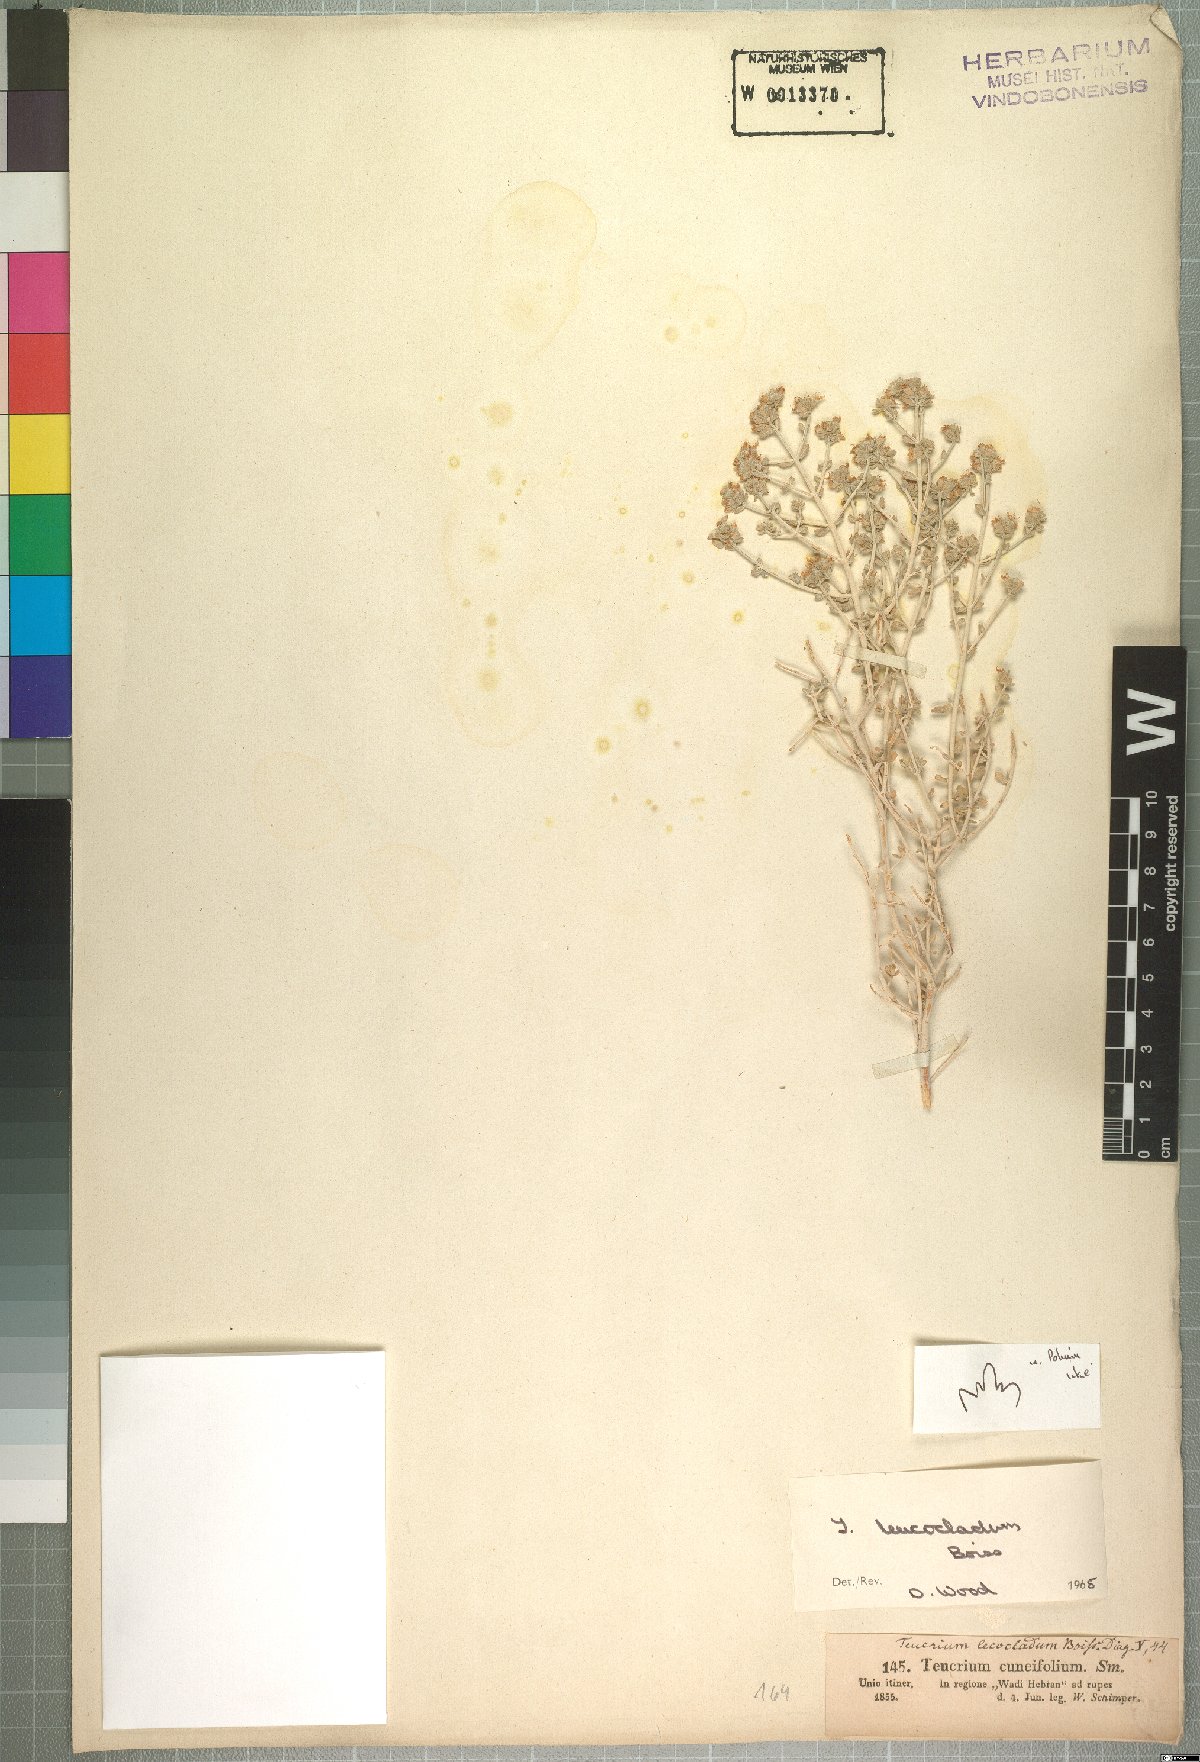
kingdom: Plantae
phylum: Tracheophyta
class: Magnoliopsida
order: Lamiales
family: Lamiaceae
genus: Teucrium
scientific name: Teucrium leucocladum
